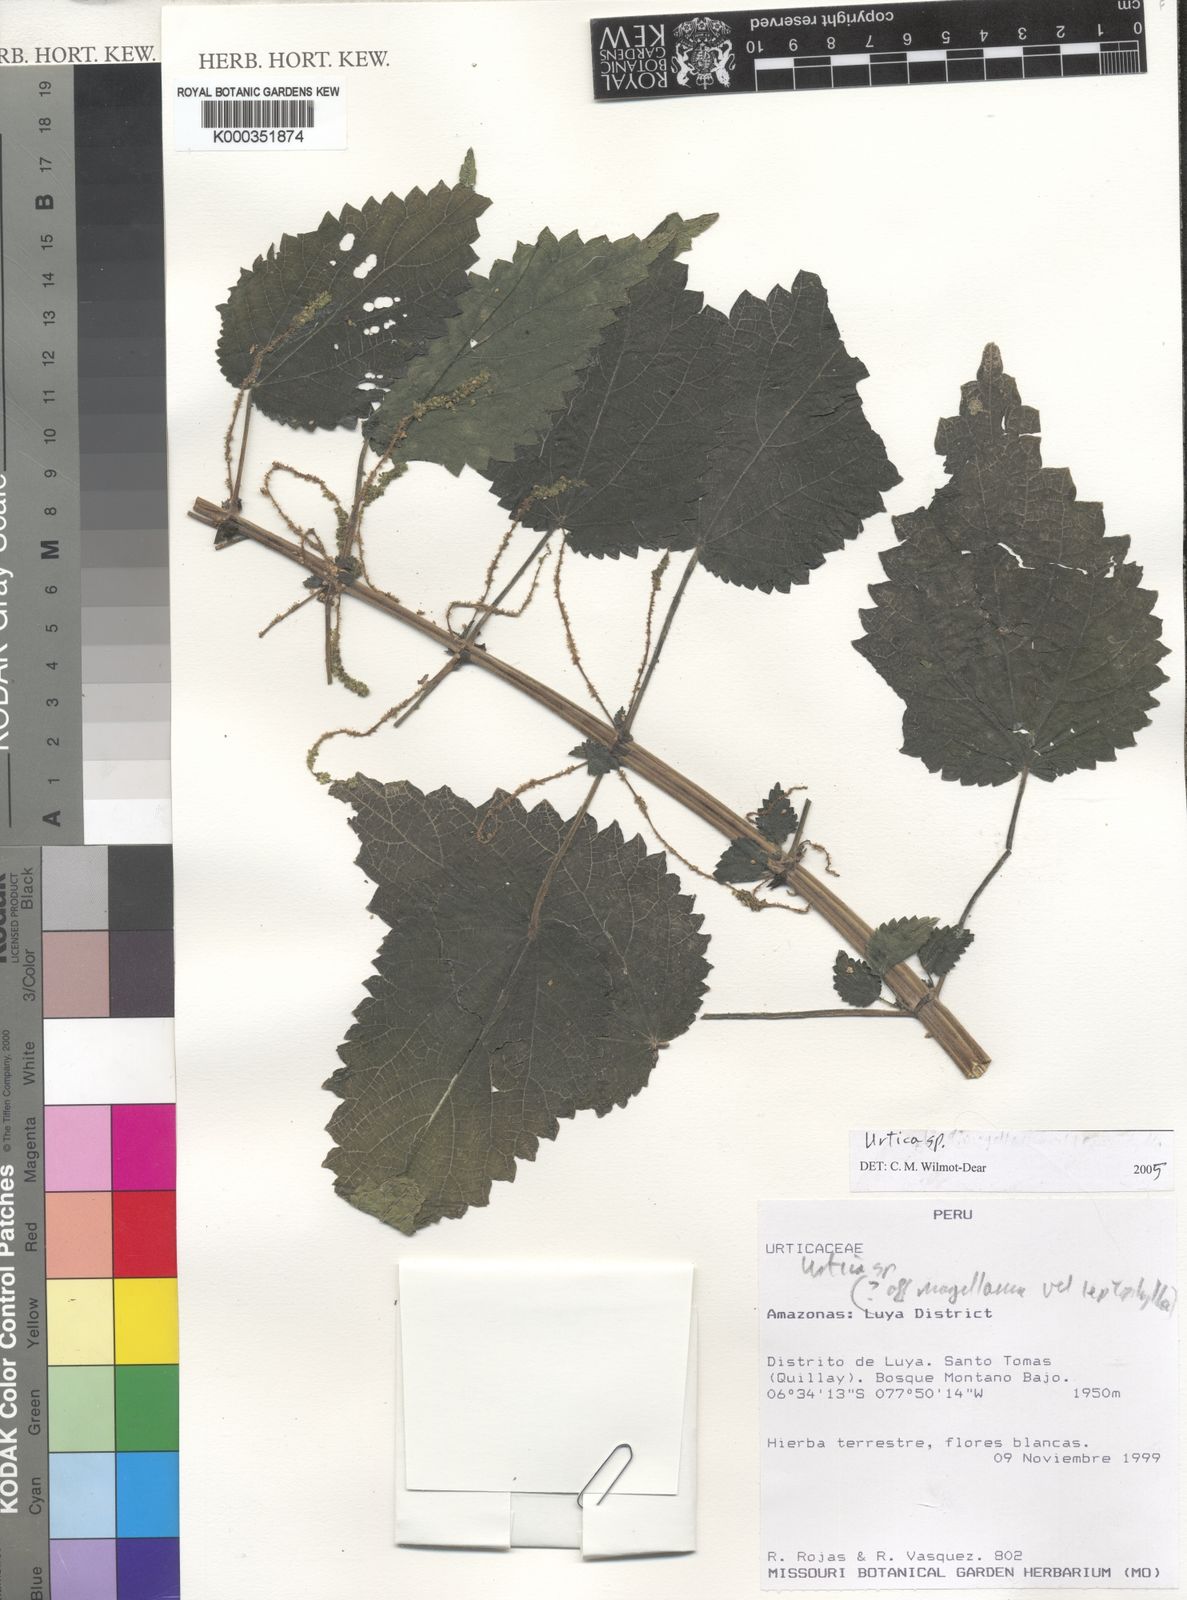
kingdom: Plantae
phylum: Tracheophyta
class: Magnoliopsida
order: Rosales
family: Urticaceae
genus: Urtica
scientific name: Urtica
